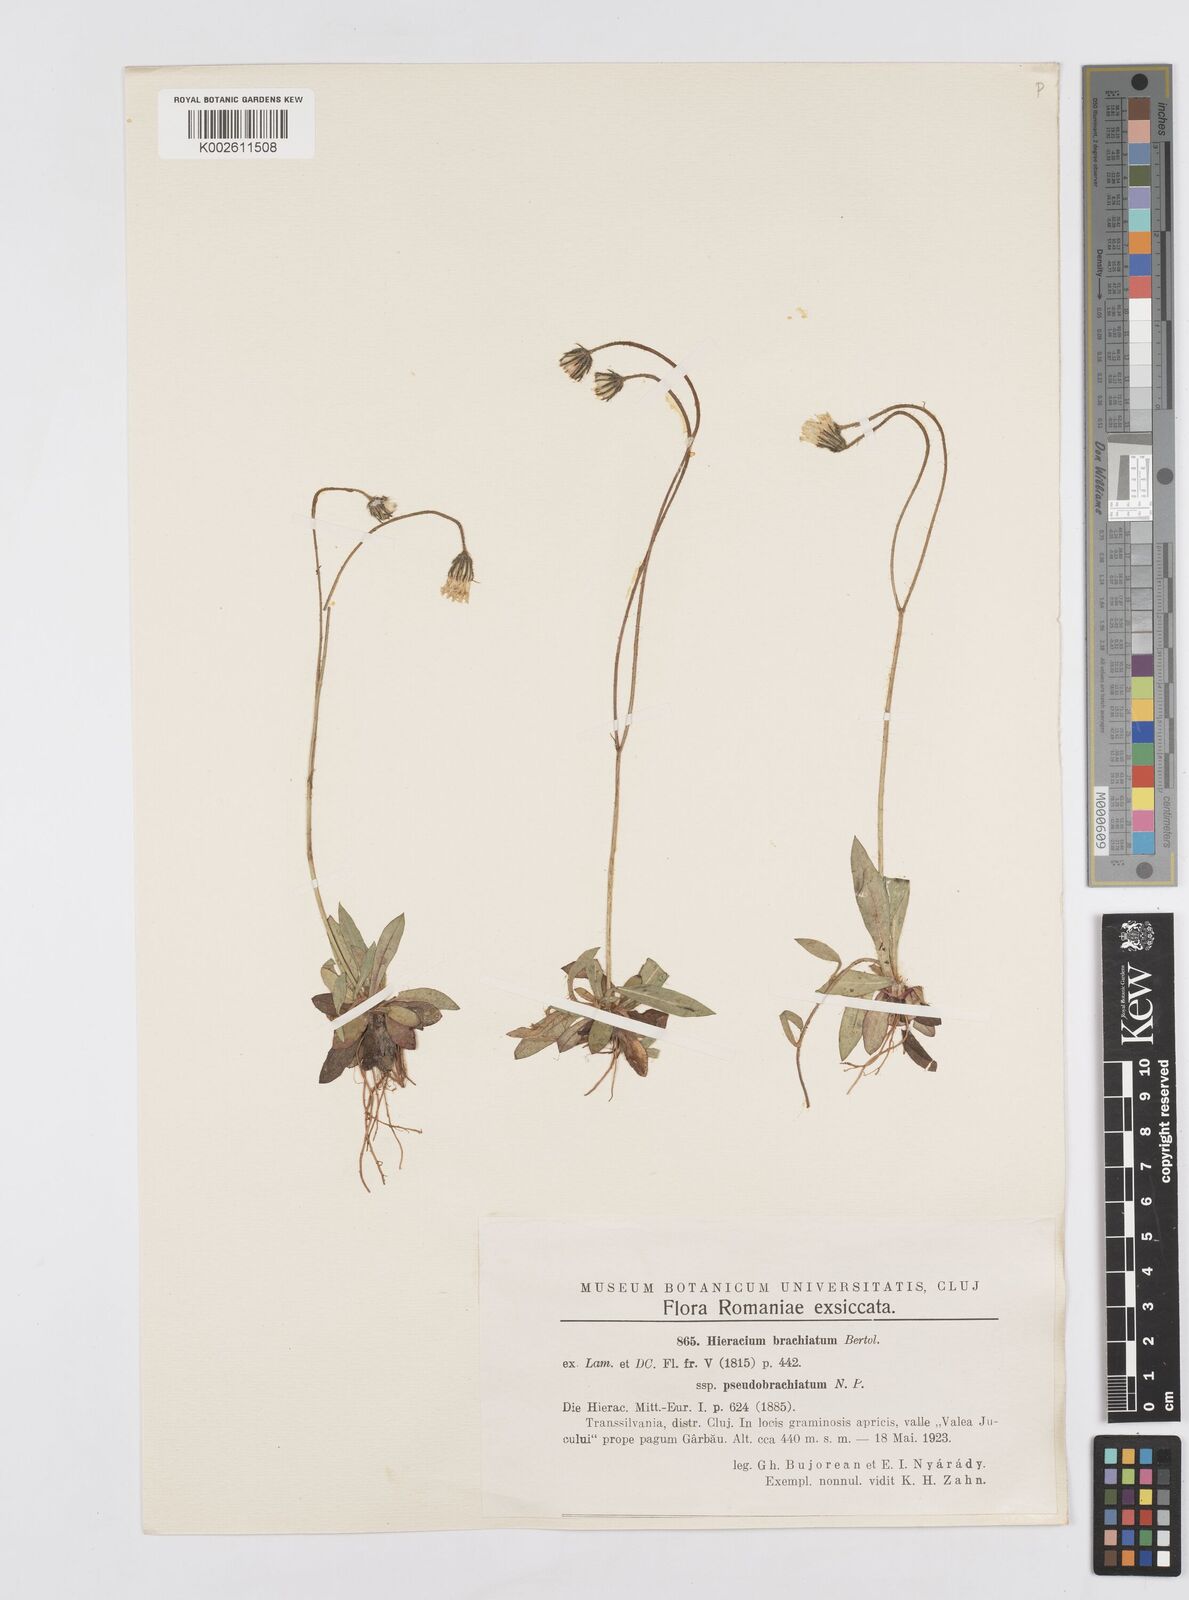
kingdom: Plantae
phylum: Tracheophyta
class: Magnoliopsida
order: Asterales
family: Asteraceae
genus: Pilosella
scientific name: Pilosella acutifolia
